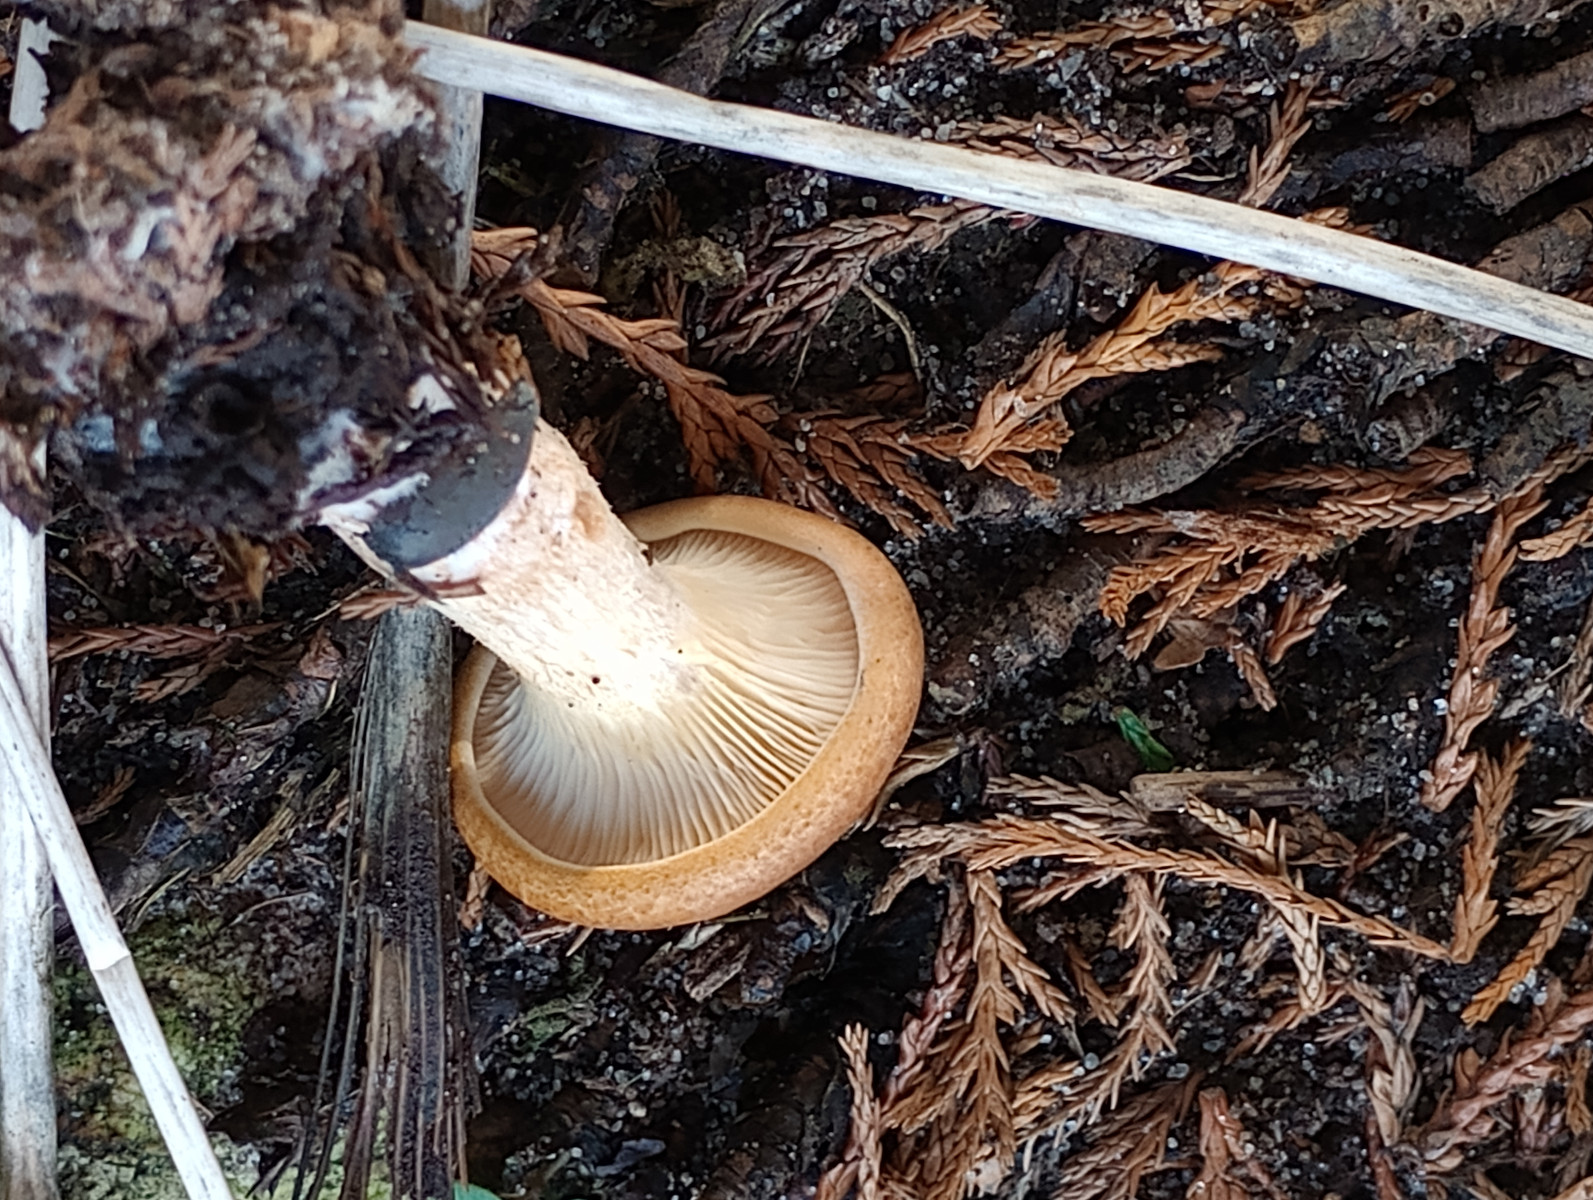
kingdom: Fungi
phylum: Basidiomycota
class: Agaricomycetes
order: Agaricales
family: Tricholomataceae
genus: Paralepista
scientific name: Paralepista gilva
